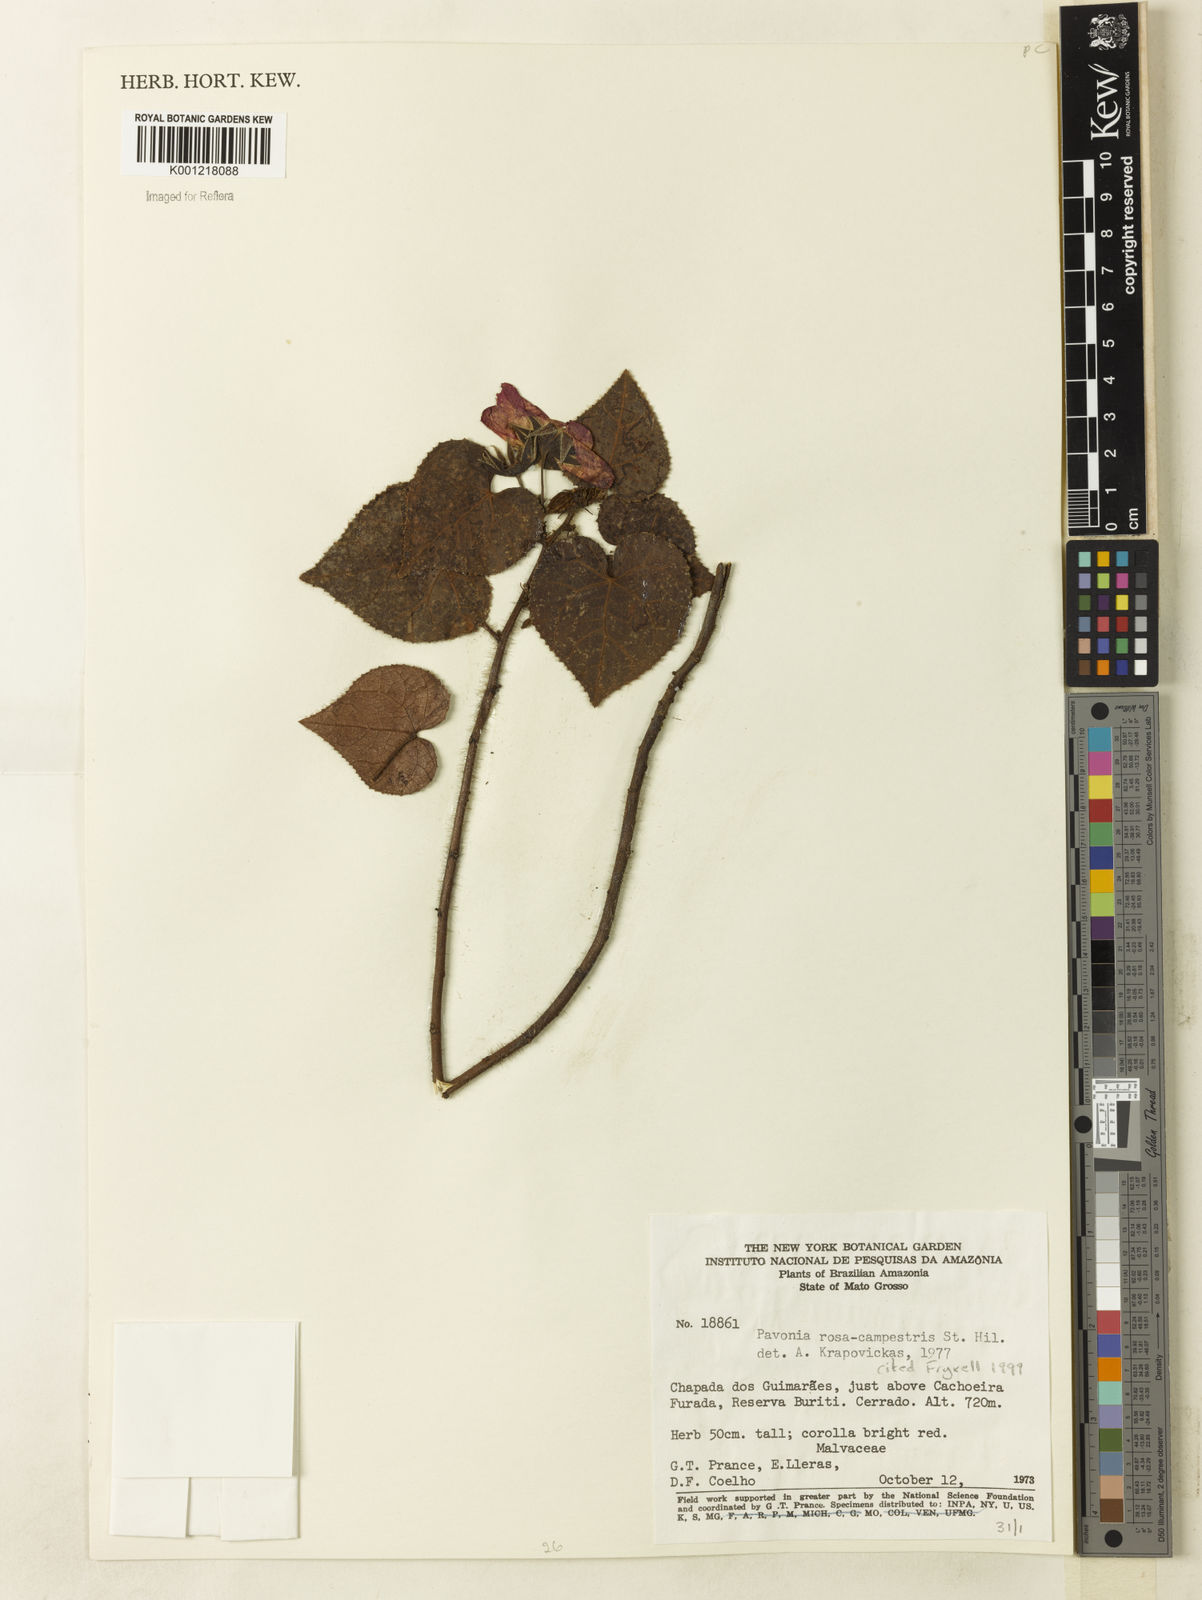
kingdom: Plantae
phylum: Tracheophyta
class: Magnoliopsida
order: Malvales
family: Malvaceae
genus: Pavonia
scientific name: Pavonia rosa-campestris
